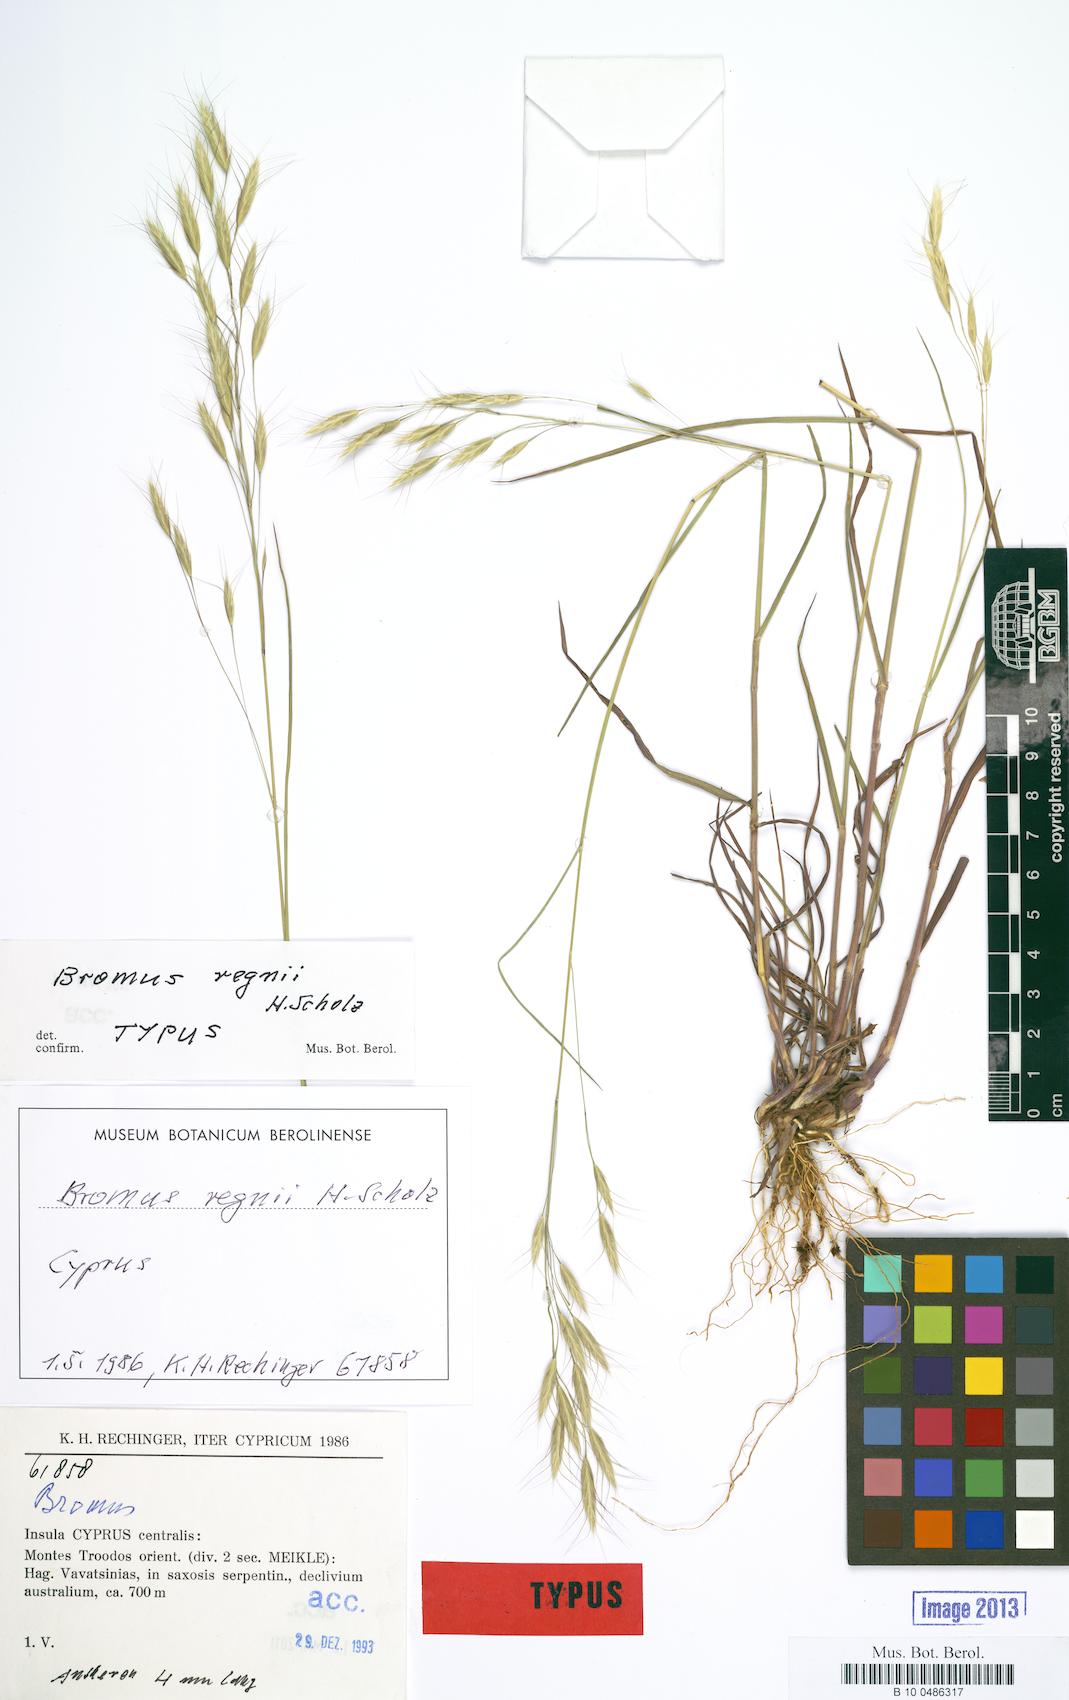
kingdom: Plantae
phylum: Tracheophyta
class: Liliopsida
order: Poales
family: Poaceae
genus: Bromus
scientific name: Bromus japonicus
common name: Japanese brome
